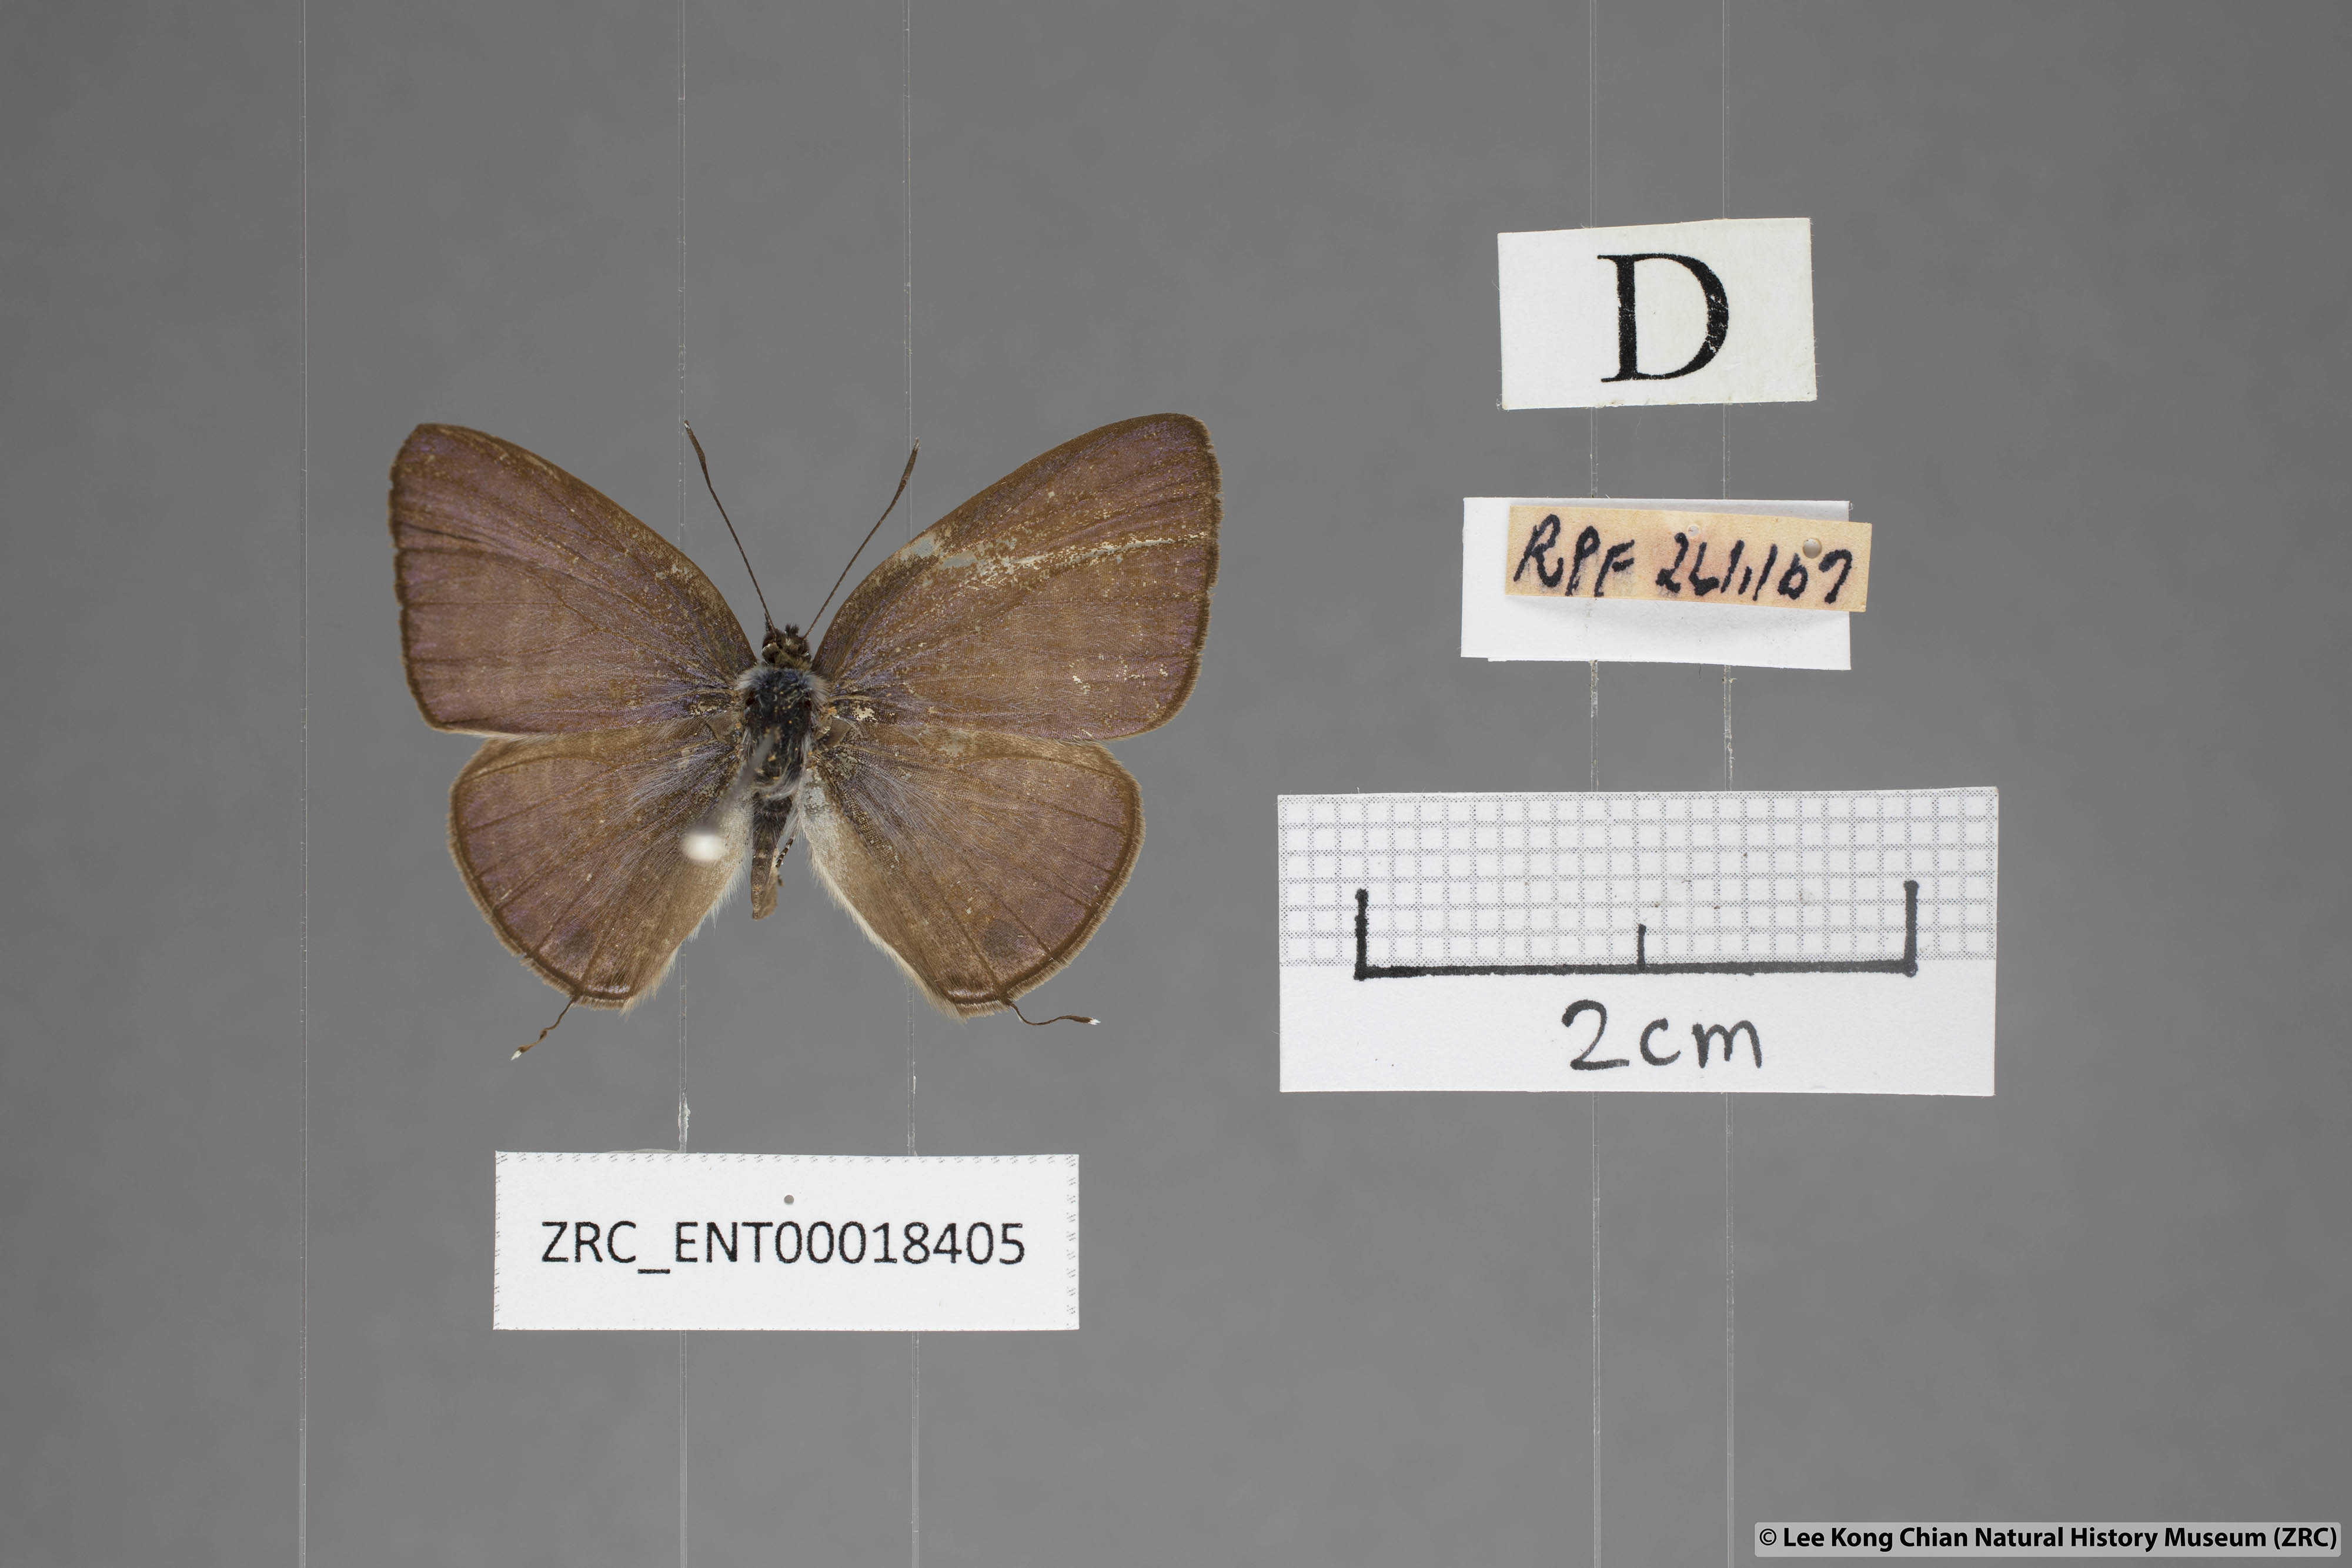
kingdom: Animalia
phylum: Arthropoda
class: Insecta
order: Lepidoptera
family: Lycaenidae
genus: Nacaduba
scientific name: Nacaduba pactolus
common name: Large fourline blue
